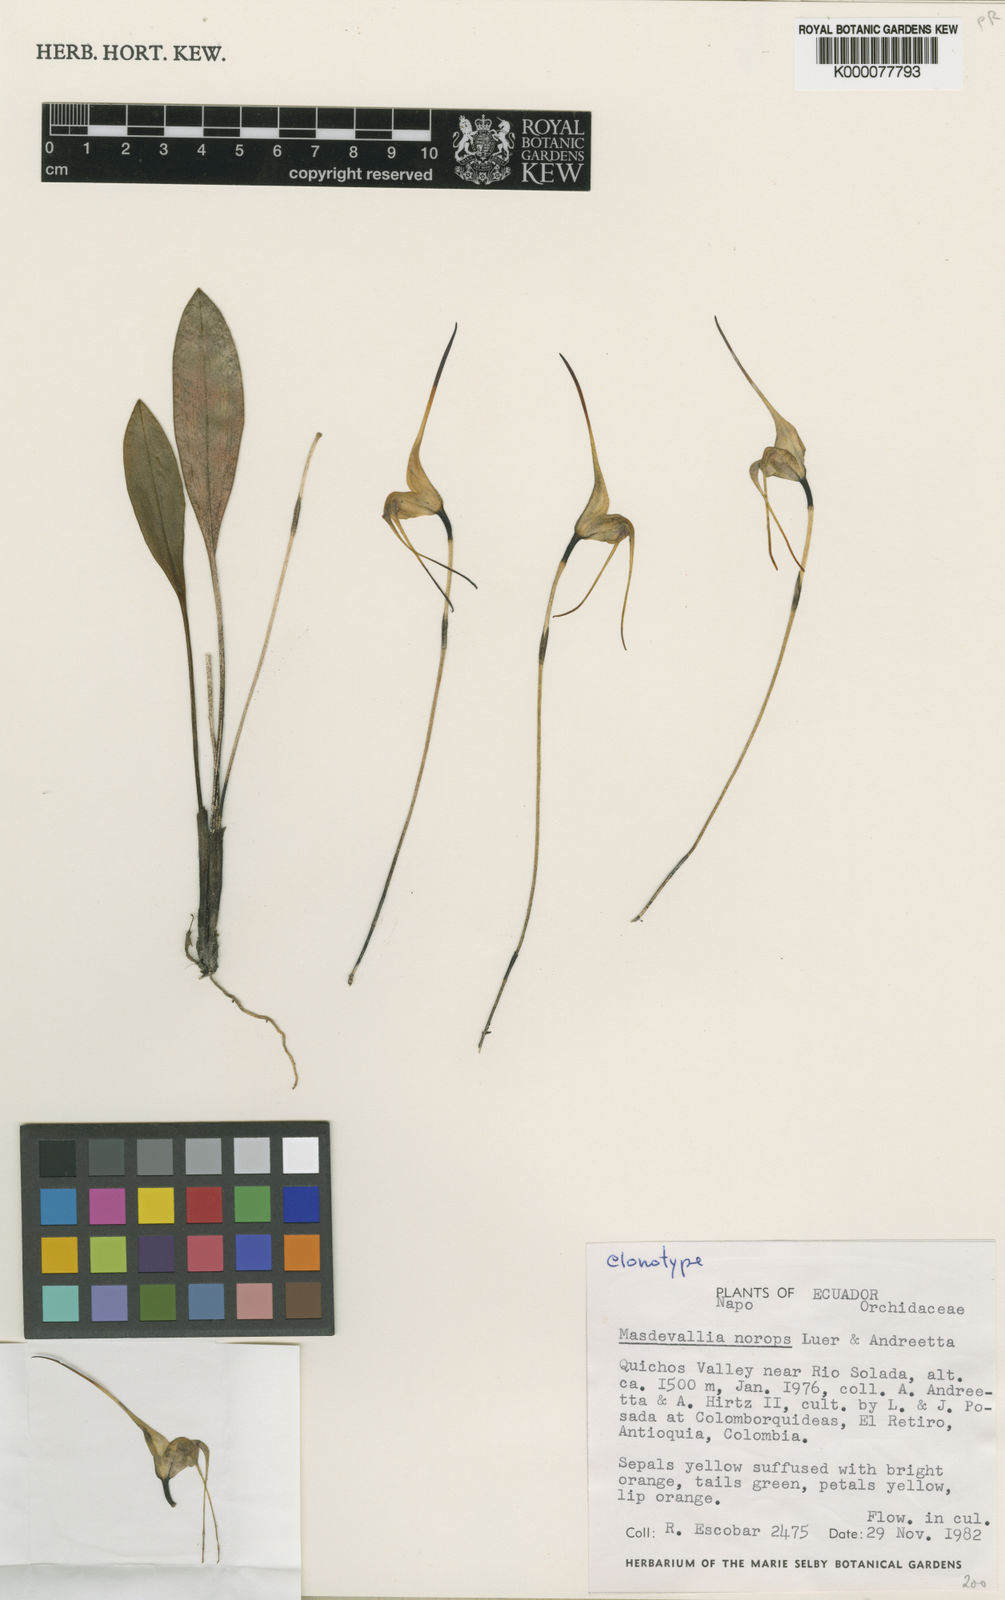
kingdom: Plantae
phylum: Tracheophyta
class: Liliopsida
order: Asparagales
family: Orchidaceae
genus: Masdevallia
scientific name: Masdevallia norops
